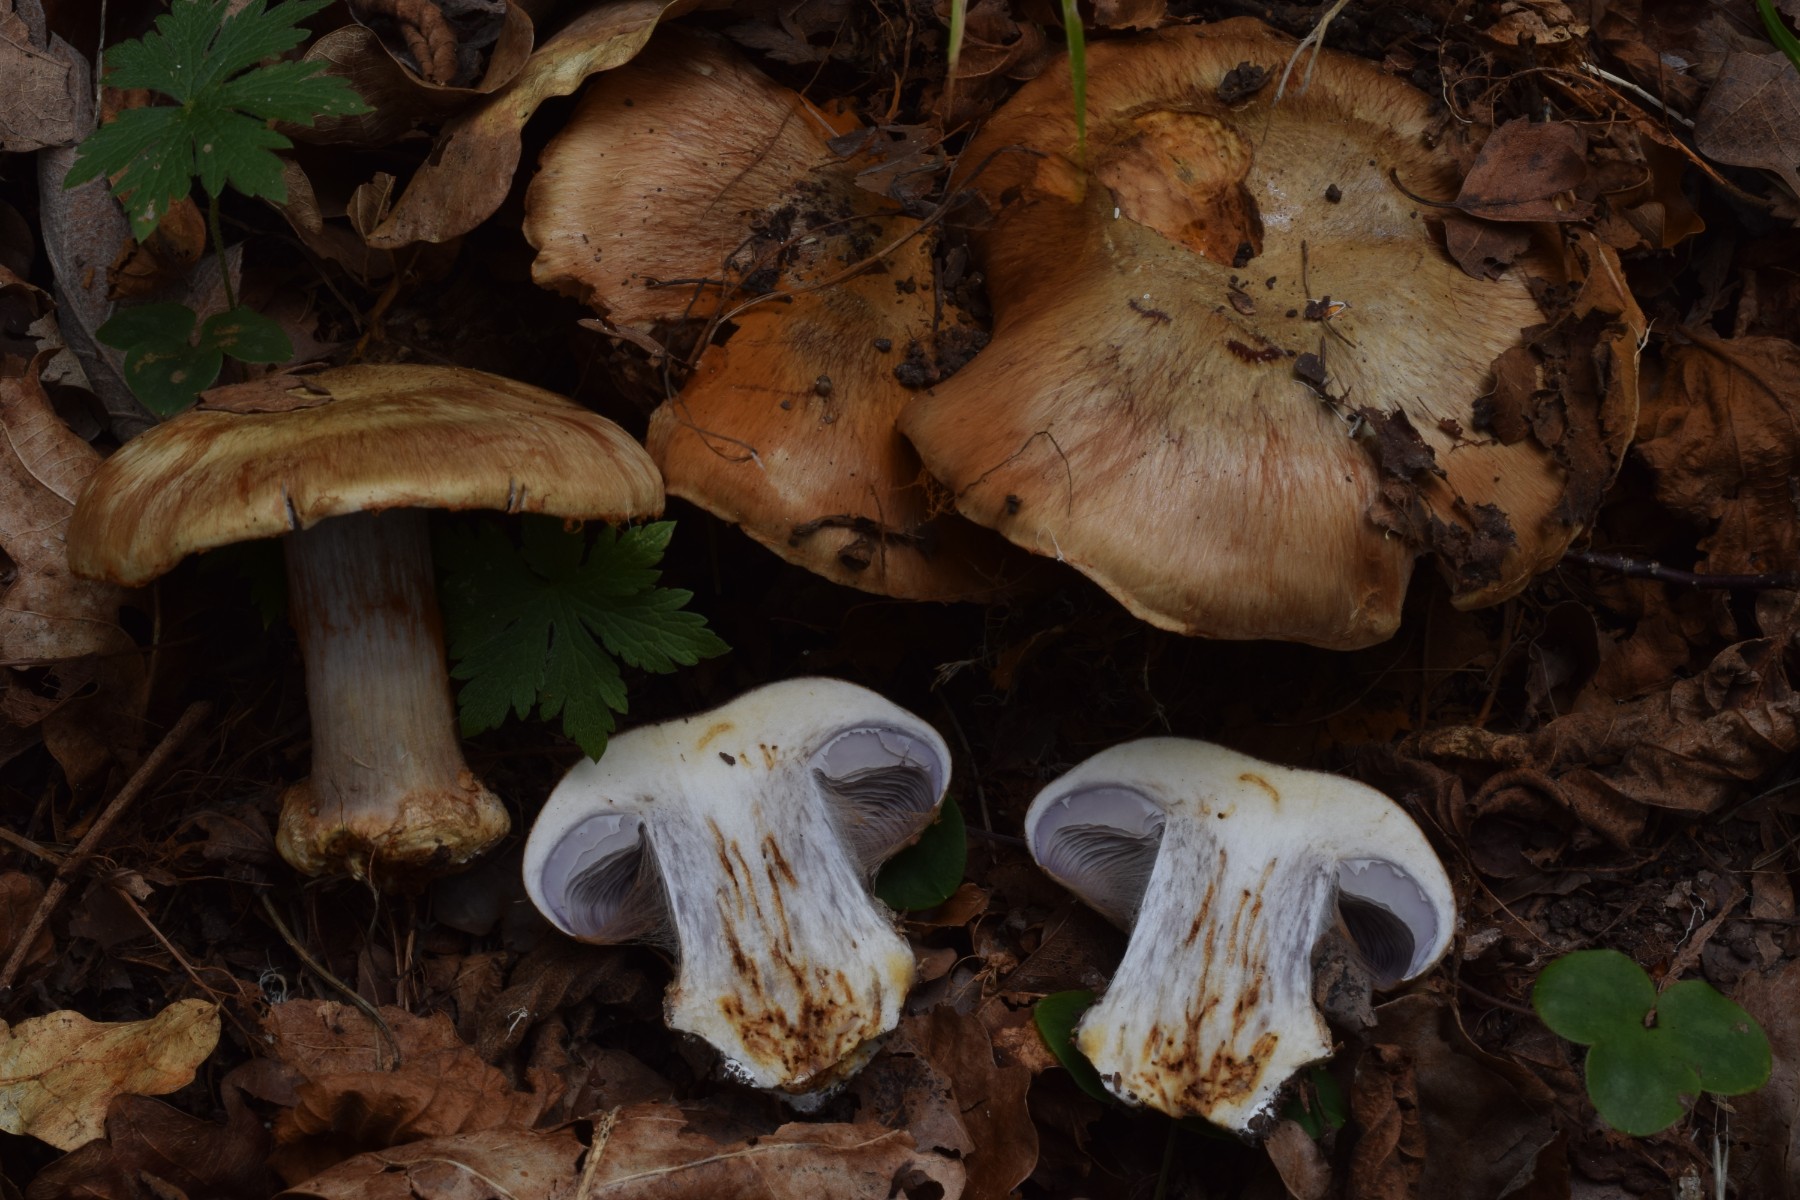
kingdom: Fungi
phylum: Basidiomycota
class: Agaricomycetes
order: Agaricales
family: Cortinariaceae
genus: Phlegmacium
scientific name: Phlegmacium
